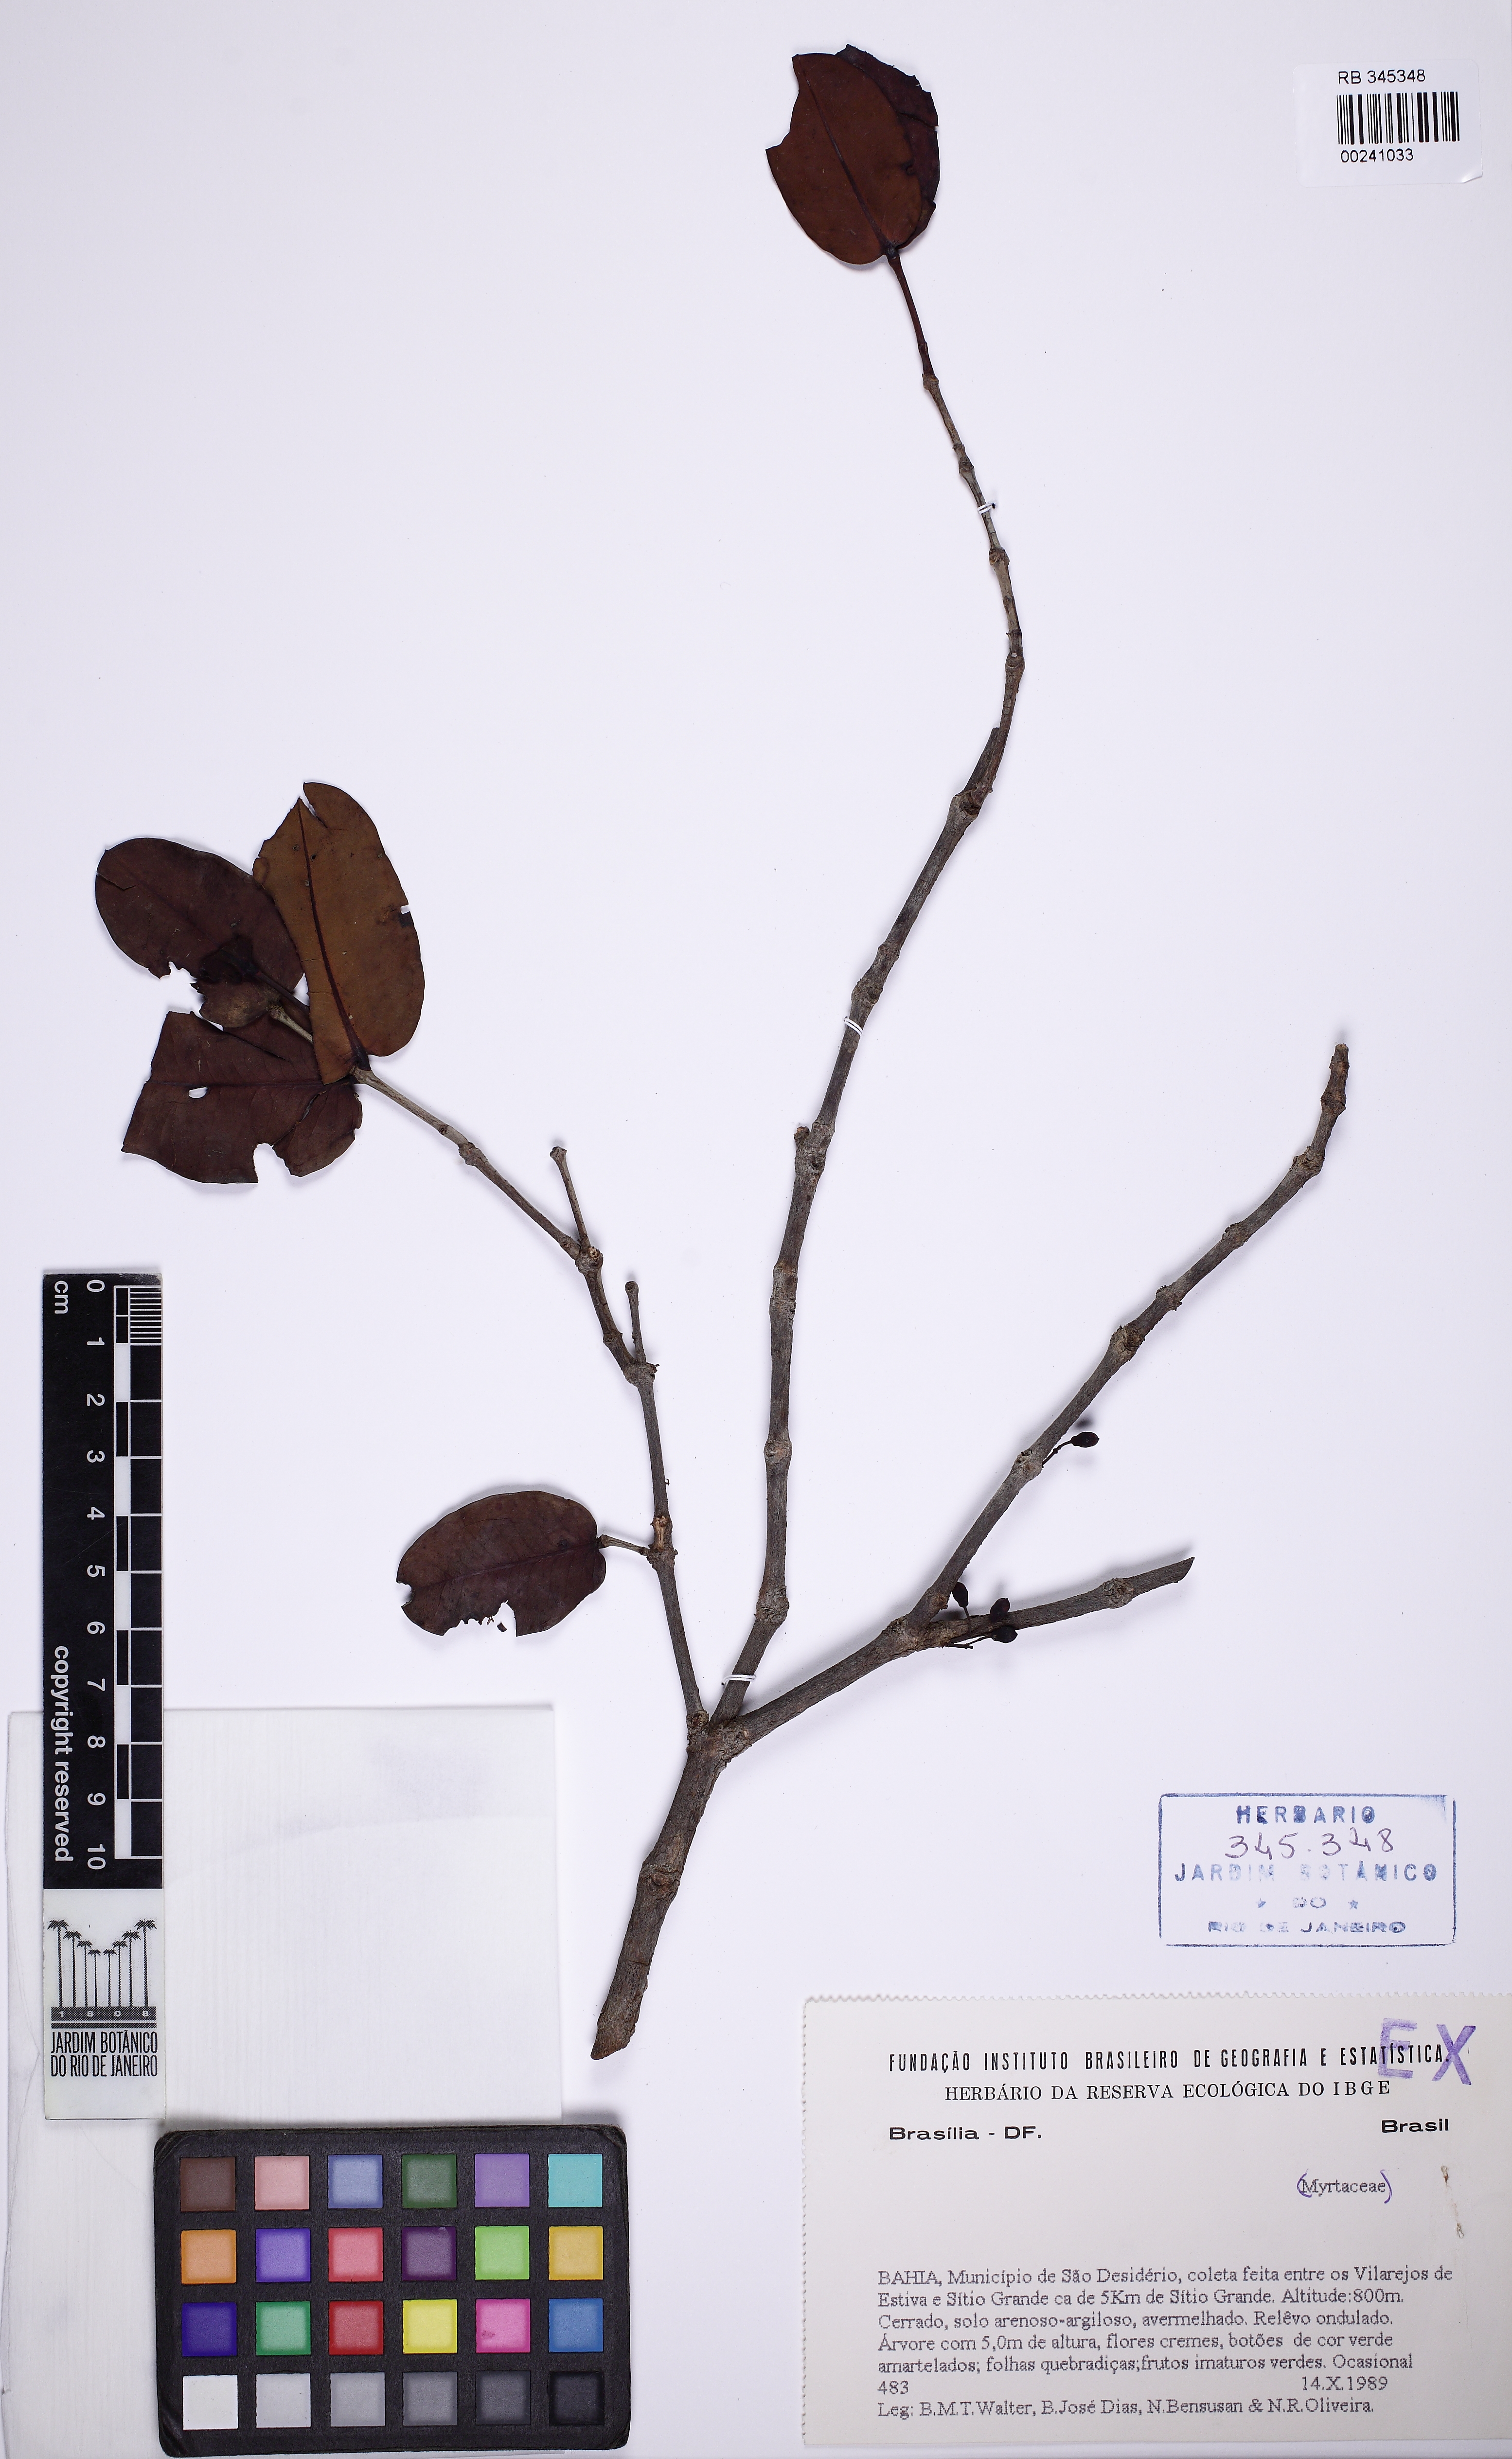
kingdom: Plantae
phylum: Tracheophyta
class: Magnoliopsida
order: Myrtales
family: Melastomataceae
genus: Mouriri
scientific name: Mouriri elliptica
